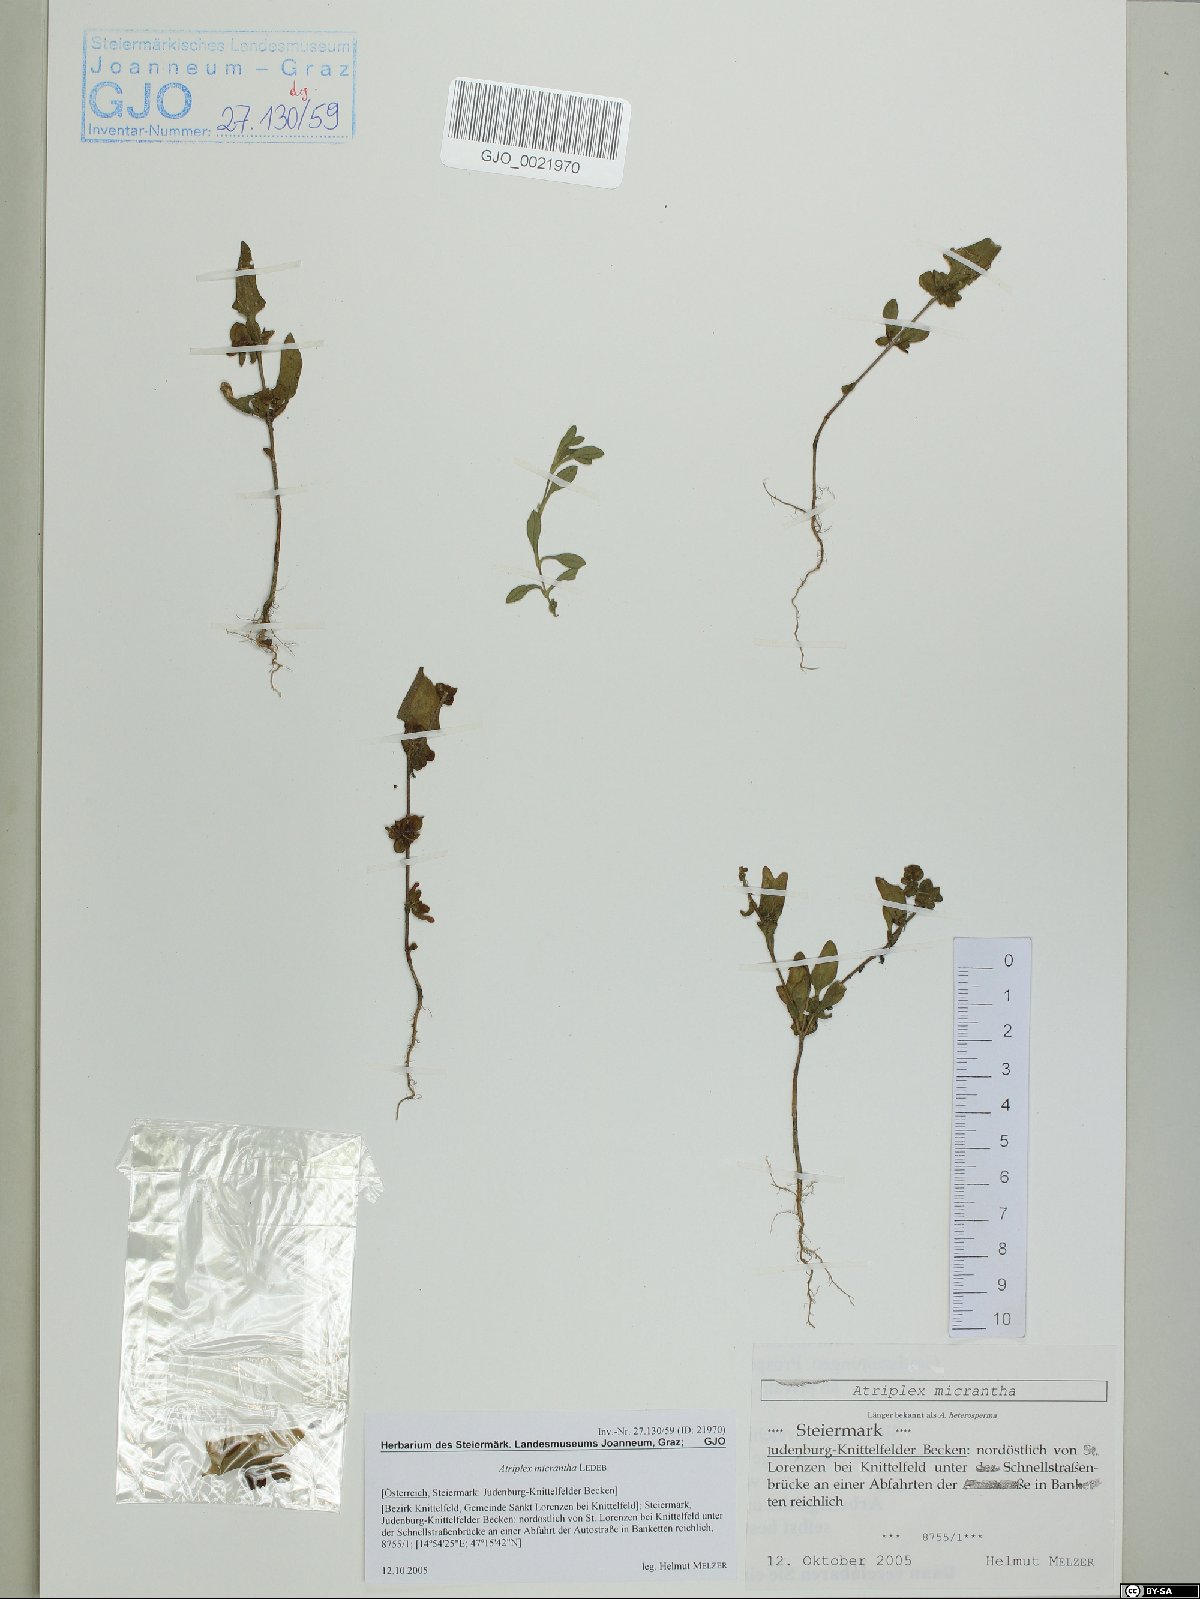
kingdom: Plantae
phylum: Tracheophyta
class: Magnoliopsida
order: Caryophyllales
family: Amaranthaceae
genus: Atriplex
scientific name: Atriplex micrantha
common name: Twoscale saltbush
